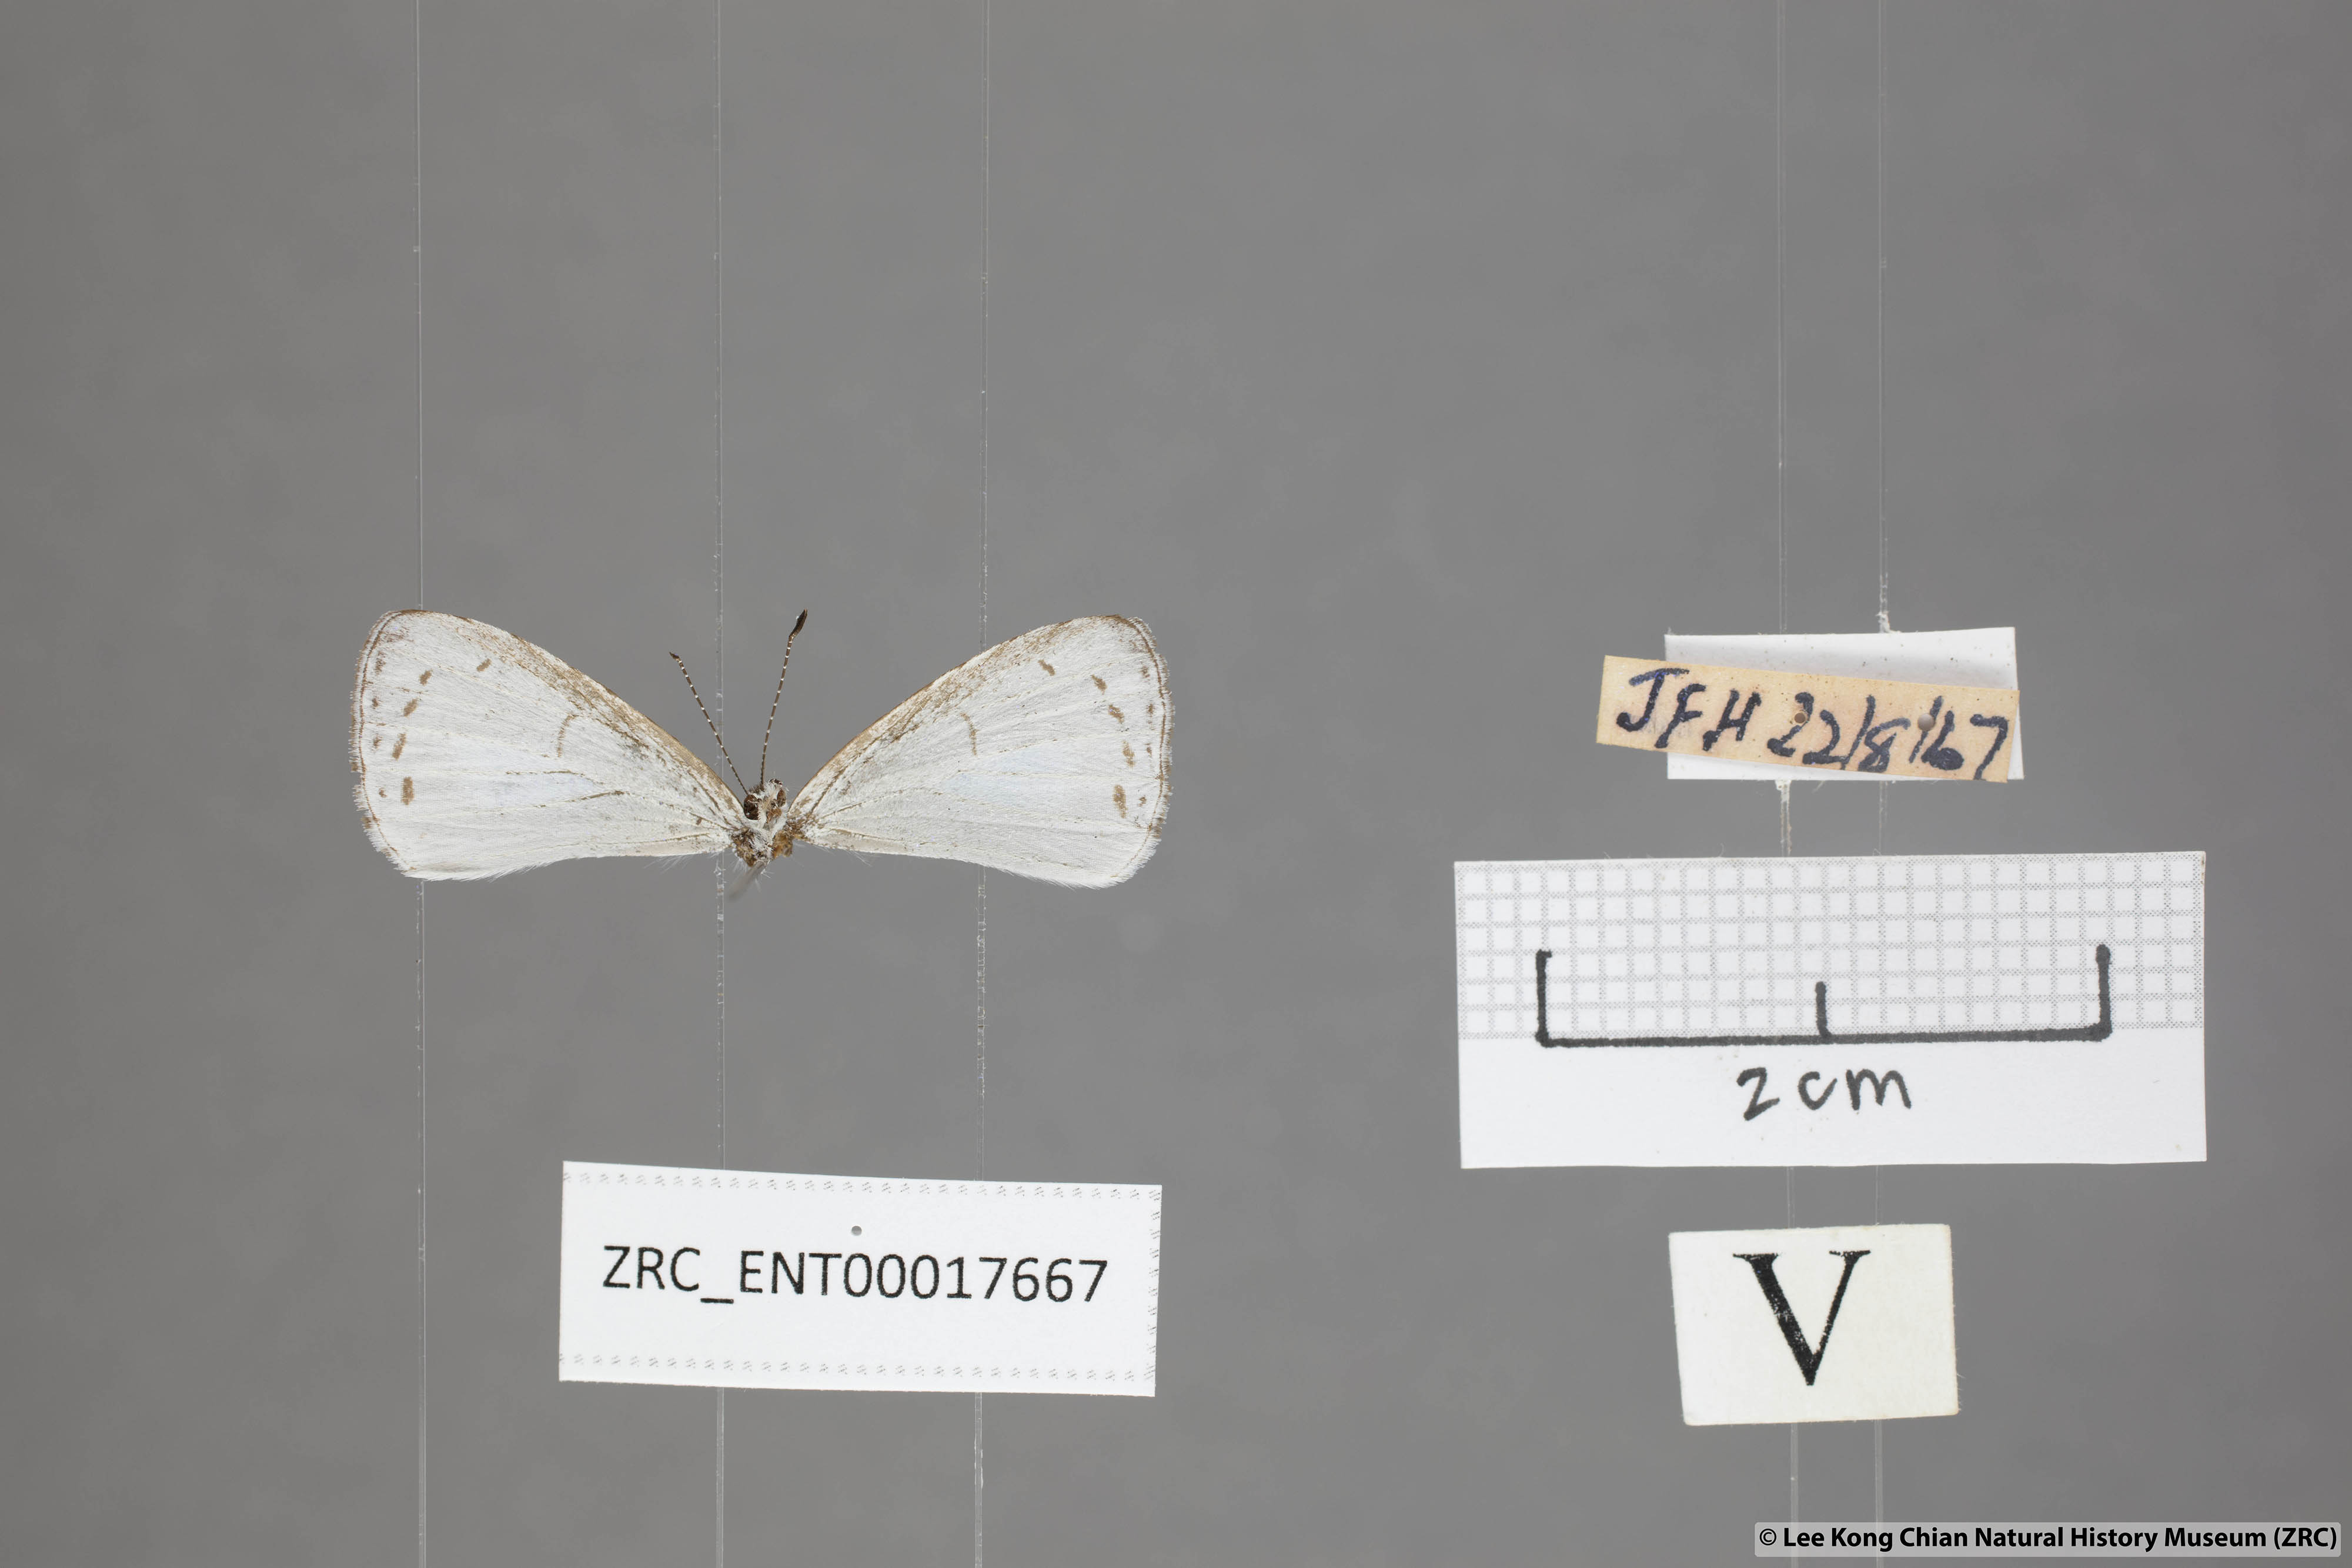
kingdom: Animalia
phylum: Arthropoda
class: Insecta
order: Lepidoptera
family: Lycaenidae
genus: Udara
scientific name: Udara albocaerulea
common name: Albocerulean
